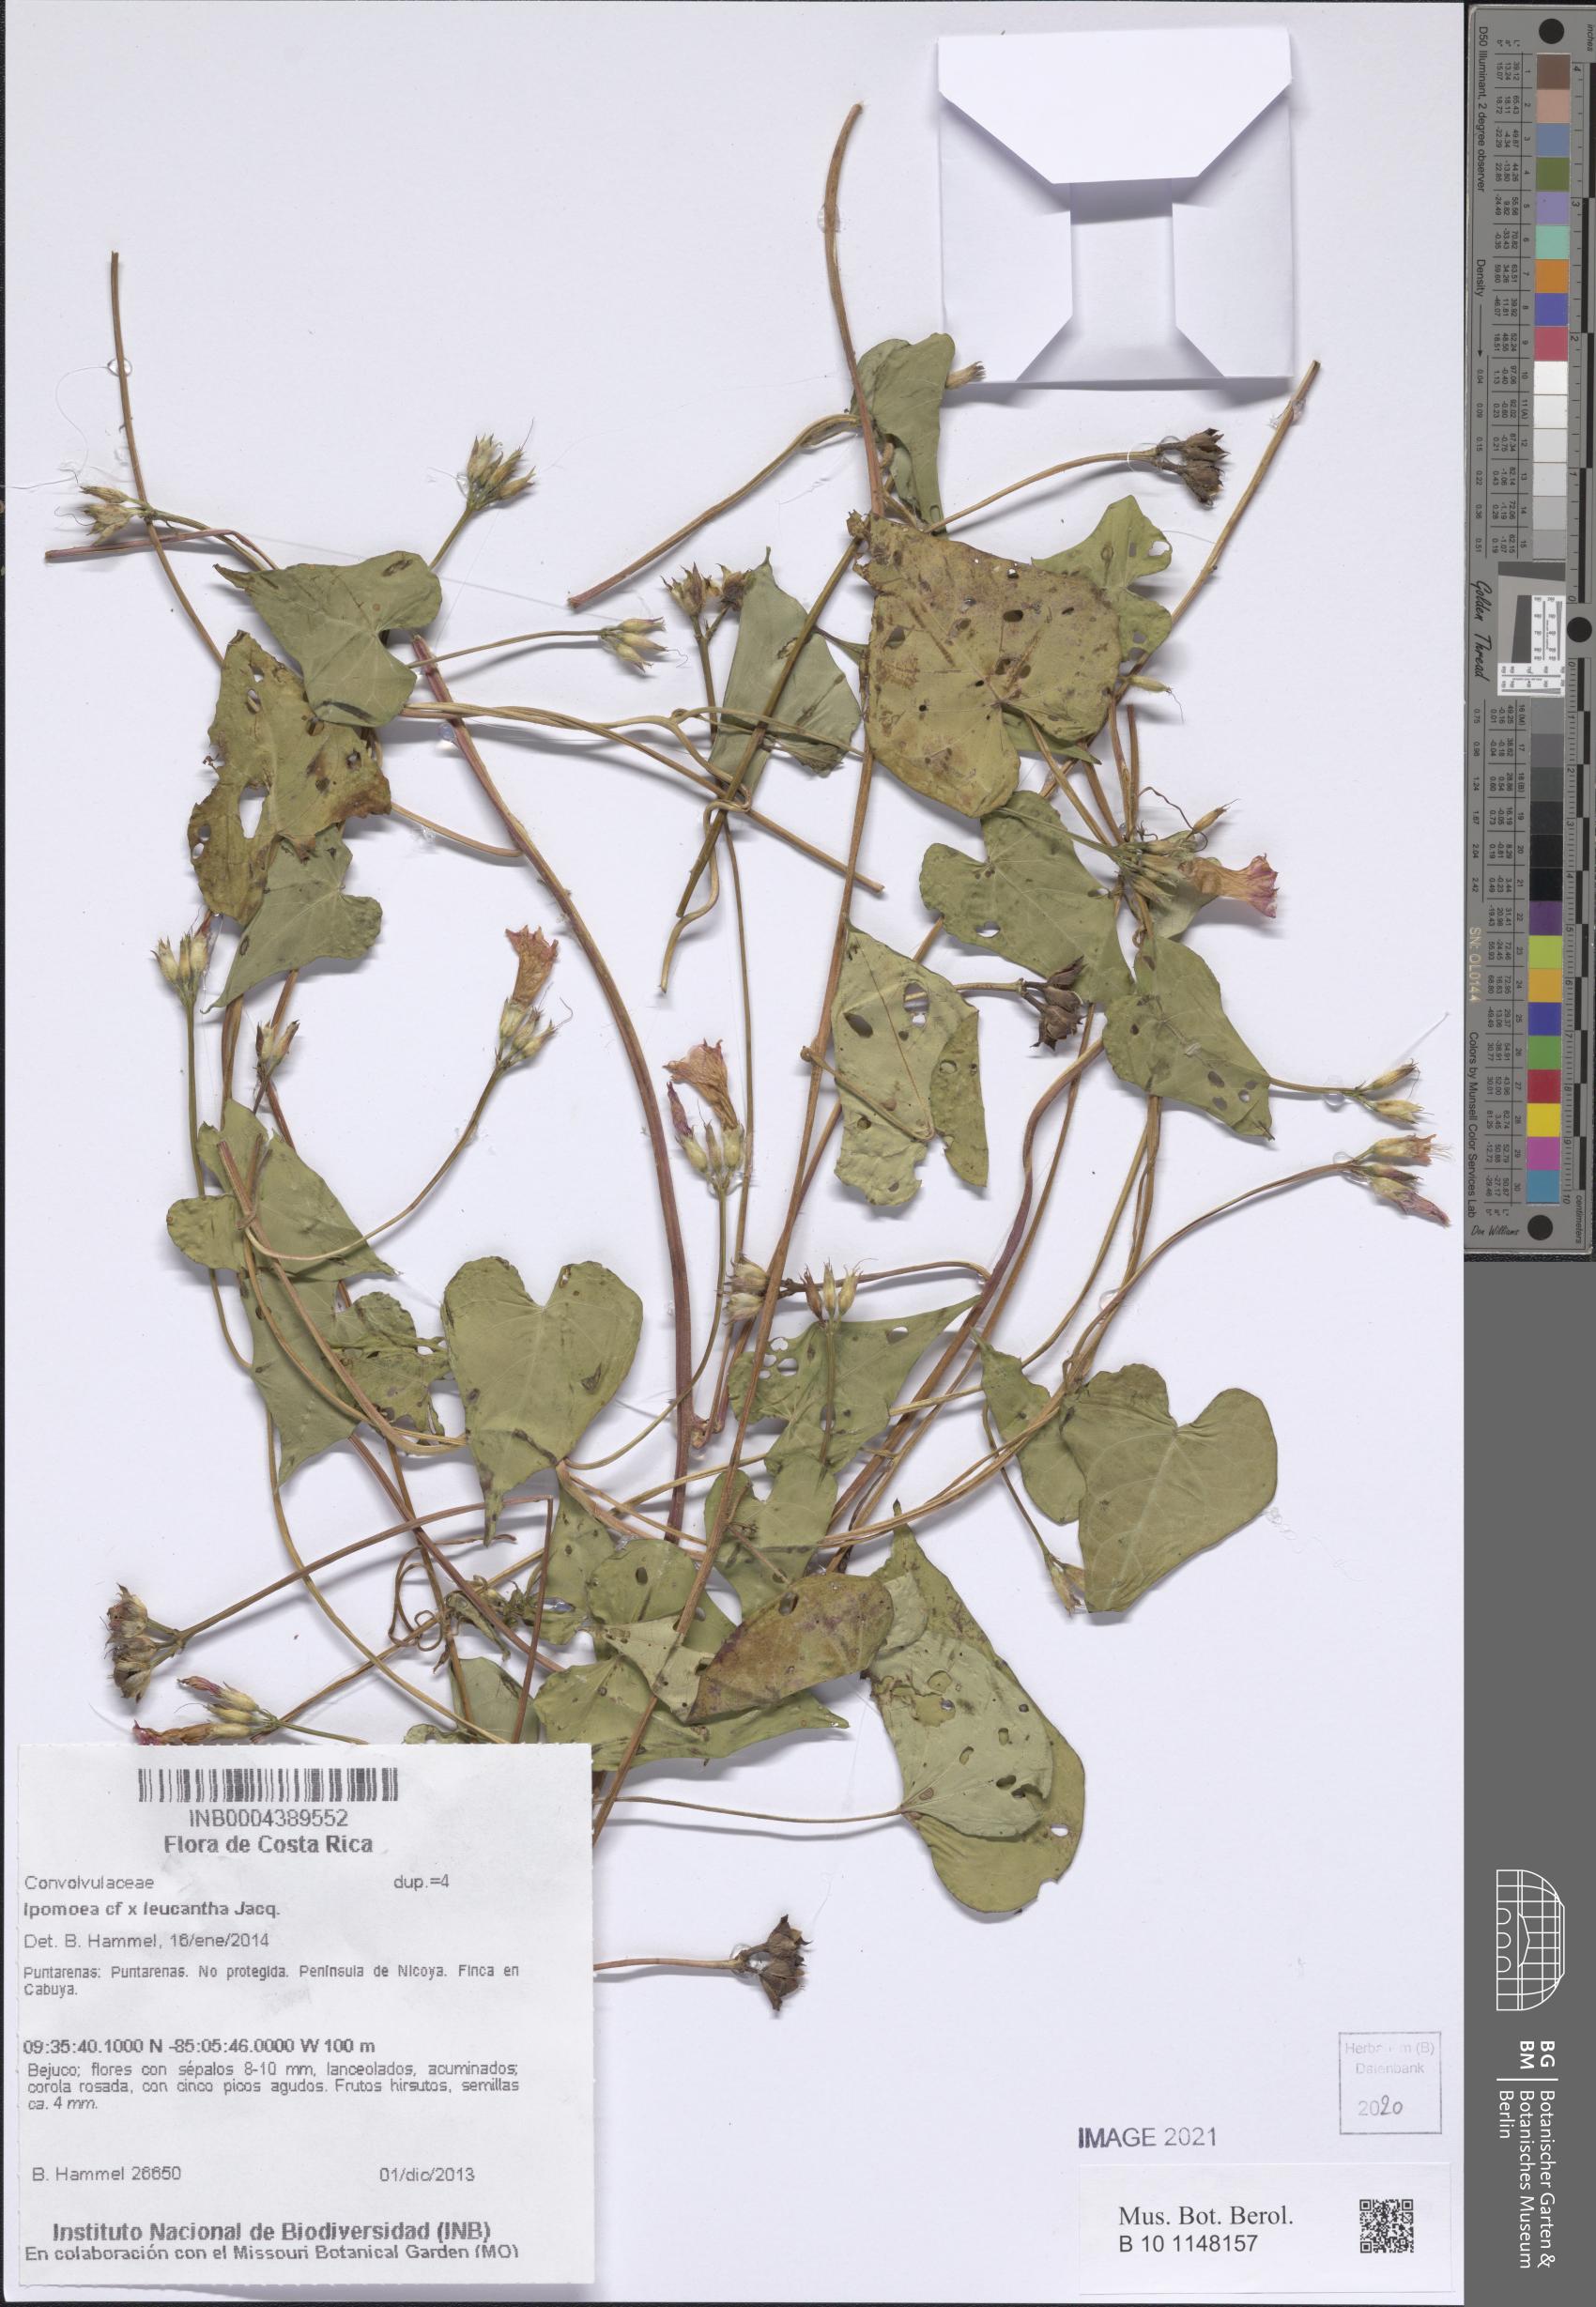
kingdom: Plantae
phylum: Tracheophyta
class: Magnoliopsida
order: Solanales
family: Convolvulaceae
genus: Ipomoea
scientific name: Ipomoea
